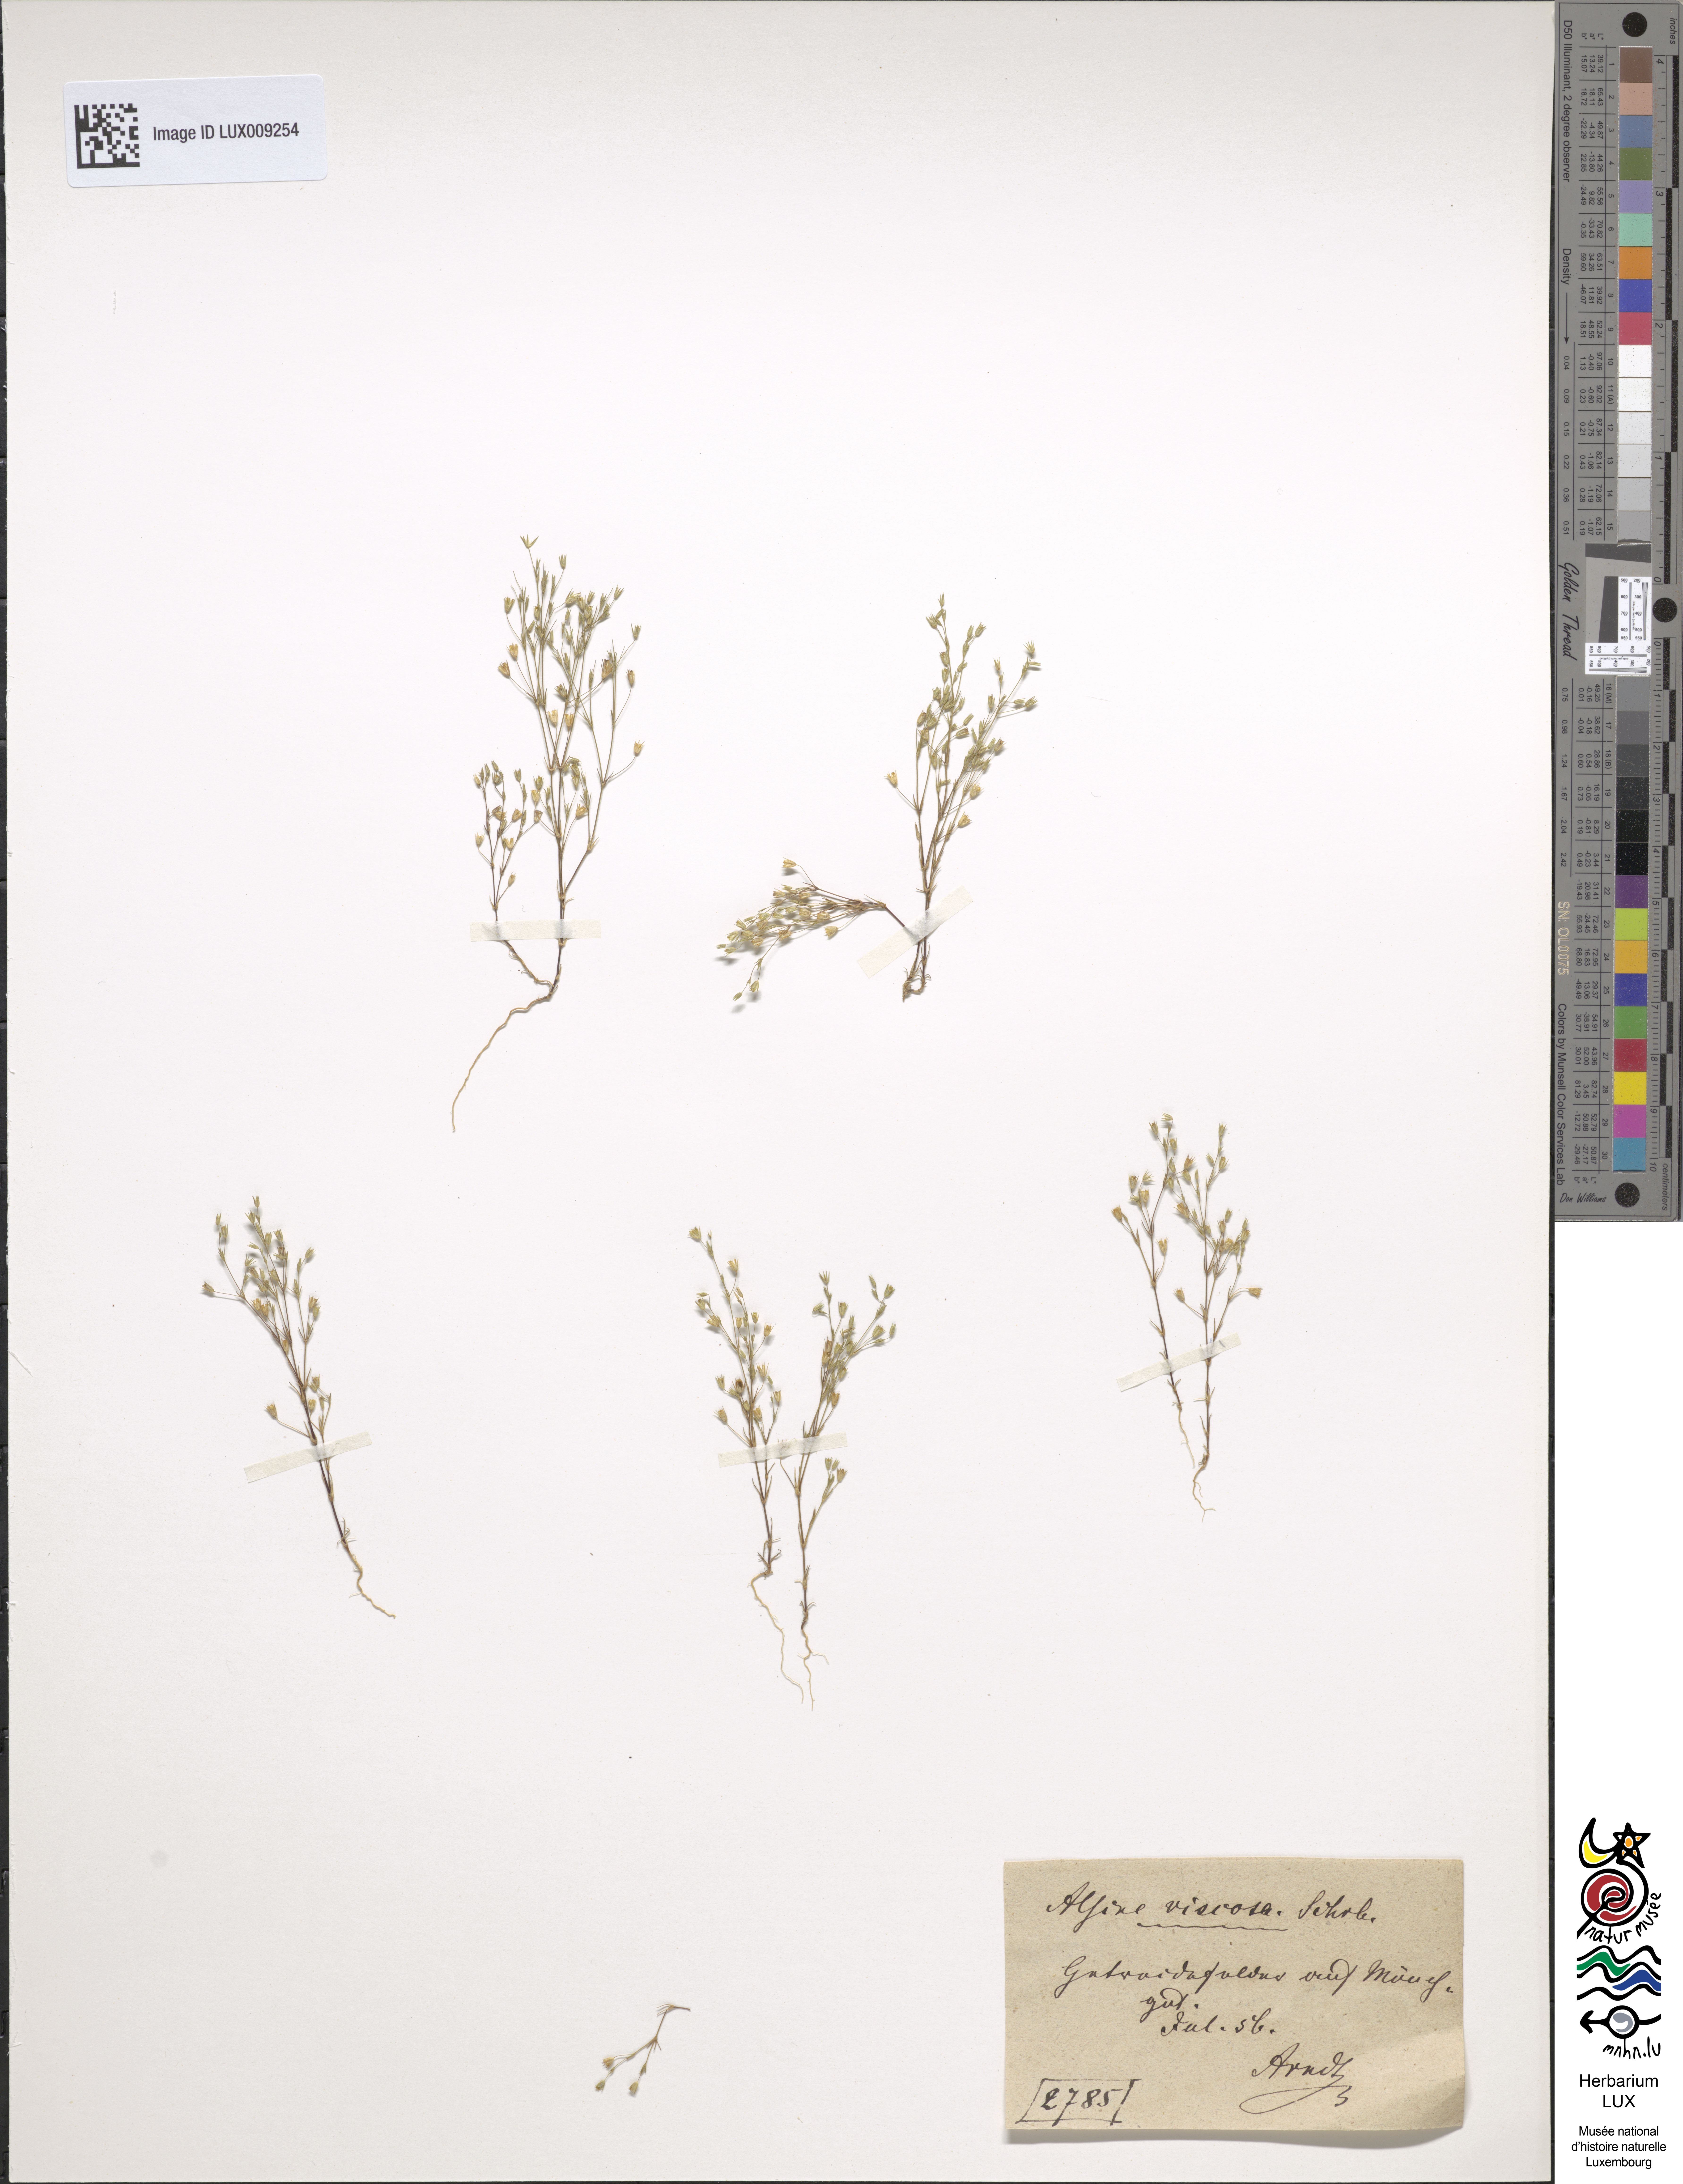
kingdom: Plantae
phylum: Tracheophyta
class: Magnoliopsida
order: Caryophyllales
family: Caryophyllaceae
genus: Sabulina
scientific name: Sabulina viscosa
